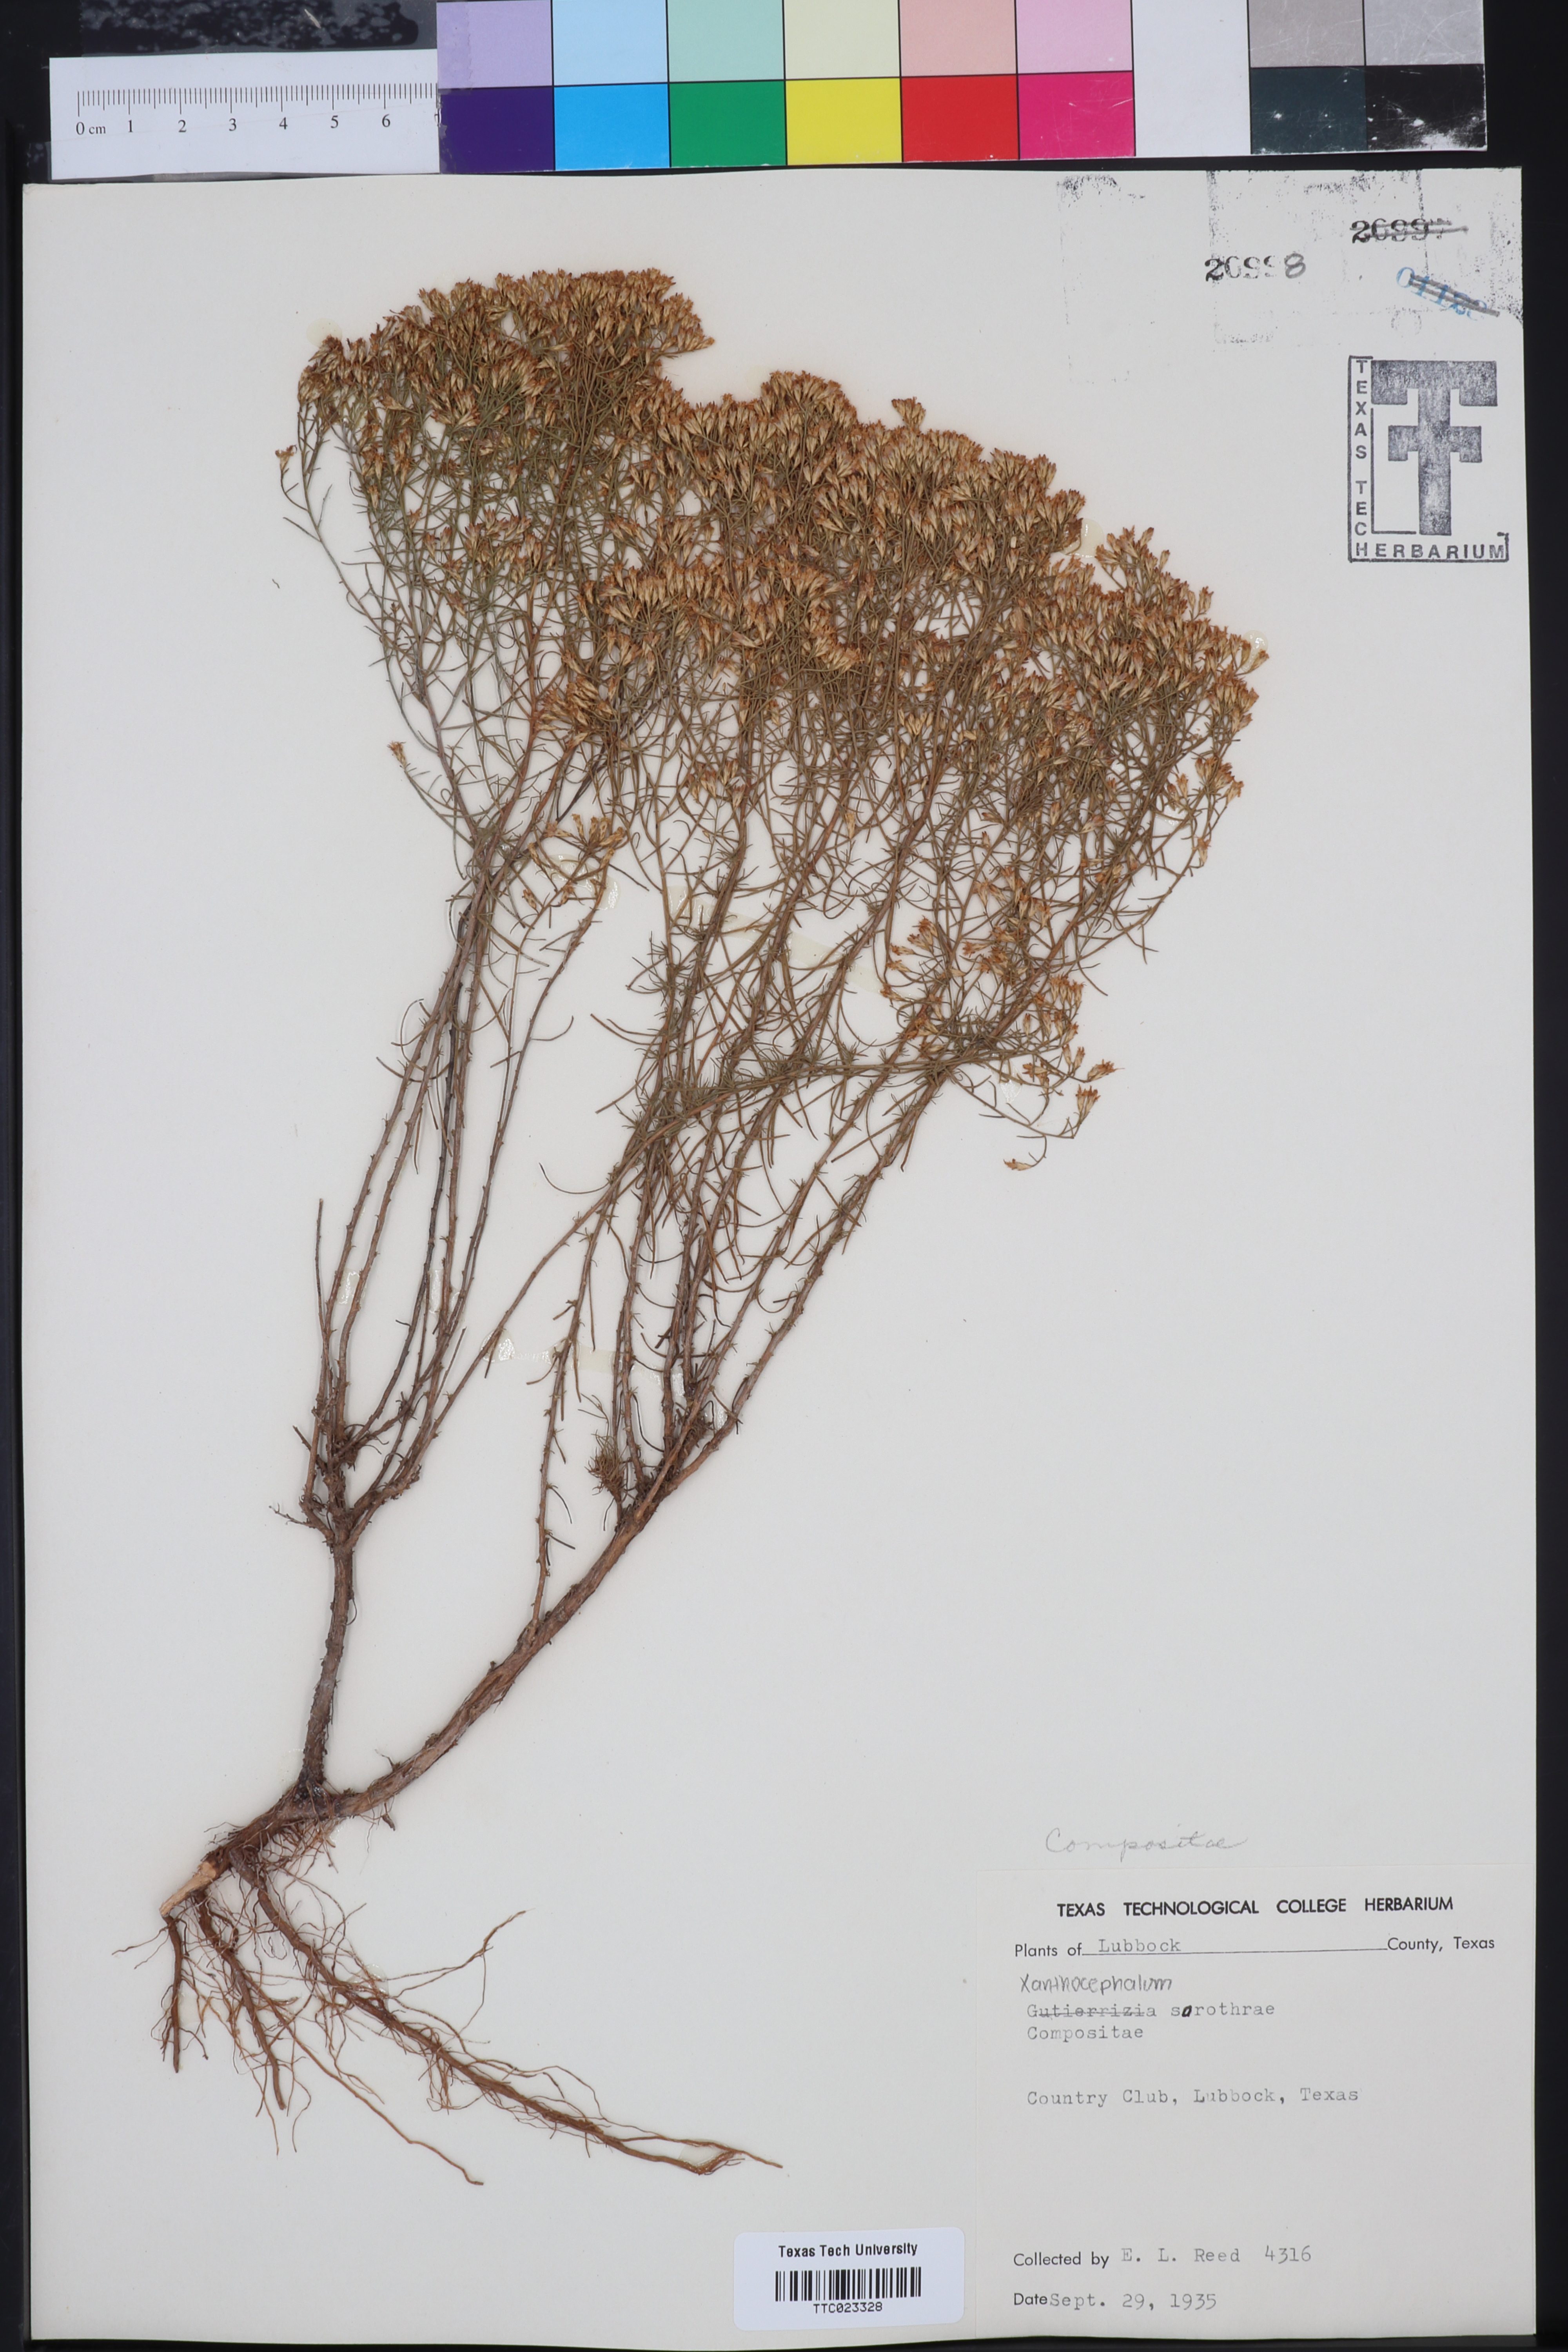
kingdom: Plantae
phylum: Tracheophyta
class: Magnoliopsida
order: Asterales
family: Asteraceae
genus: Gutierrezia
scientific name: Gutierrezia sarothrae
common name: Broom snakeweed
